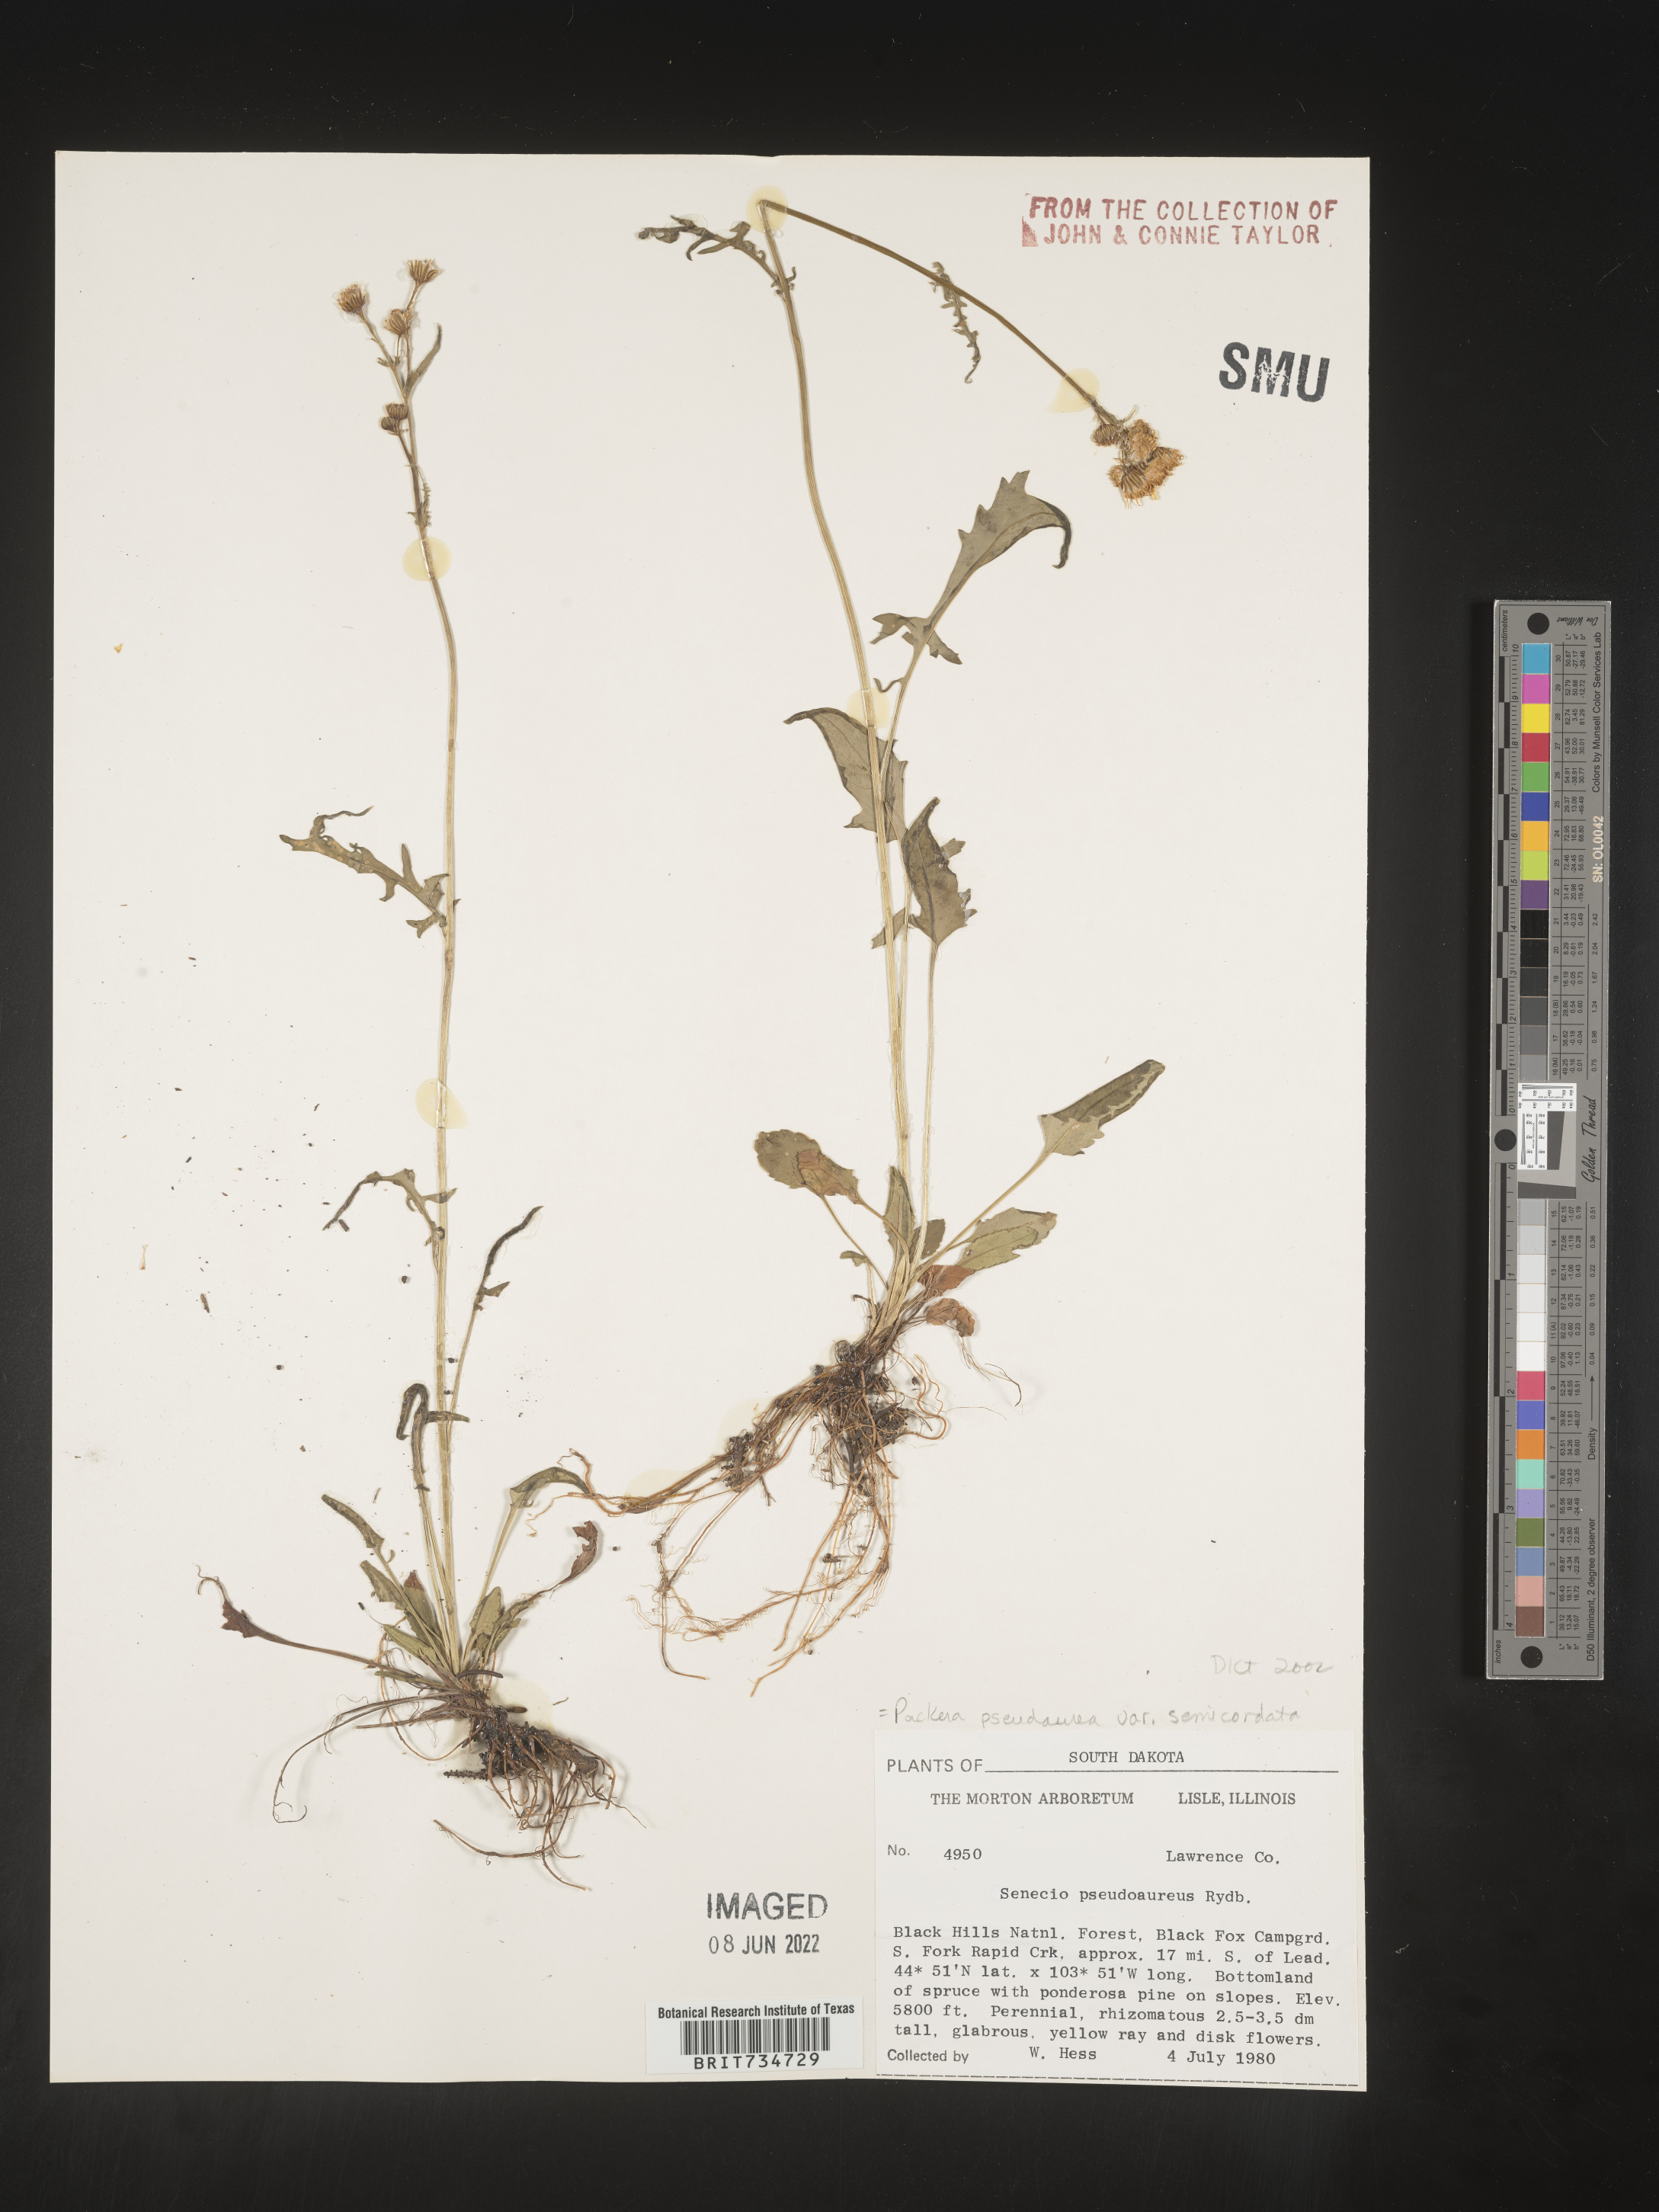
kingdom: Plantae
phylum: Tracheophyta
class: Magnoliopsida
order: Asterales
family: Asteraceae
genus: Packera
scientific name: Packera pseudaurea
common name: False-gold groundsel
